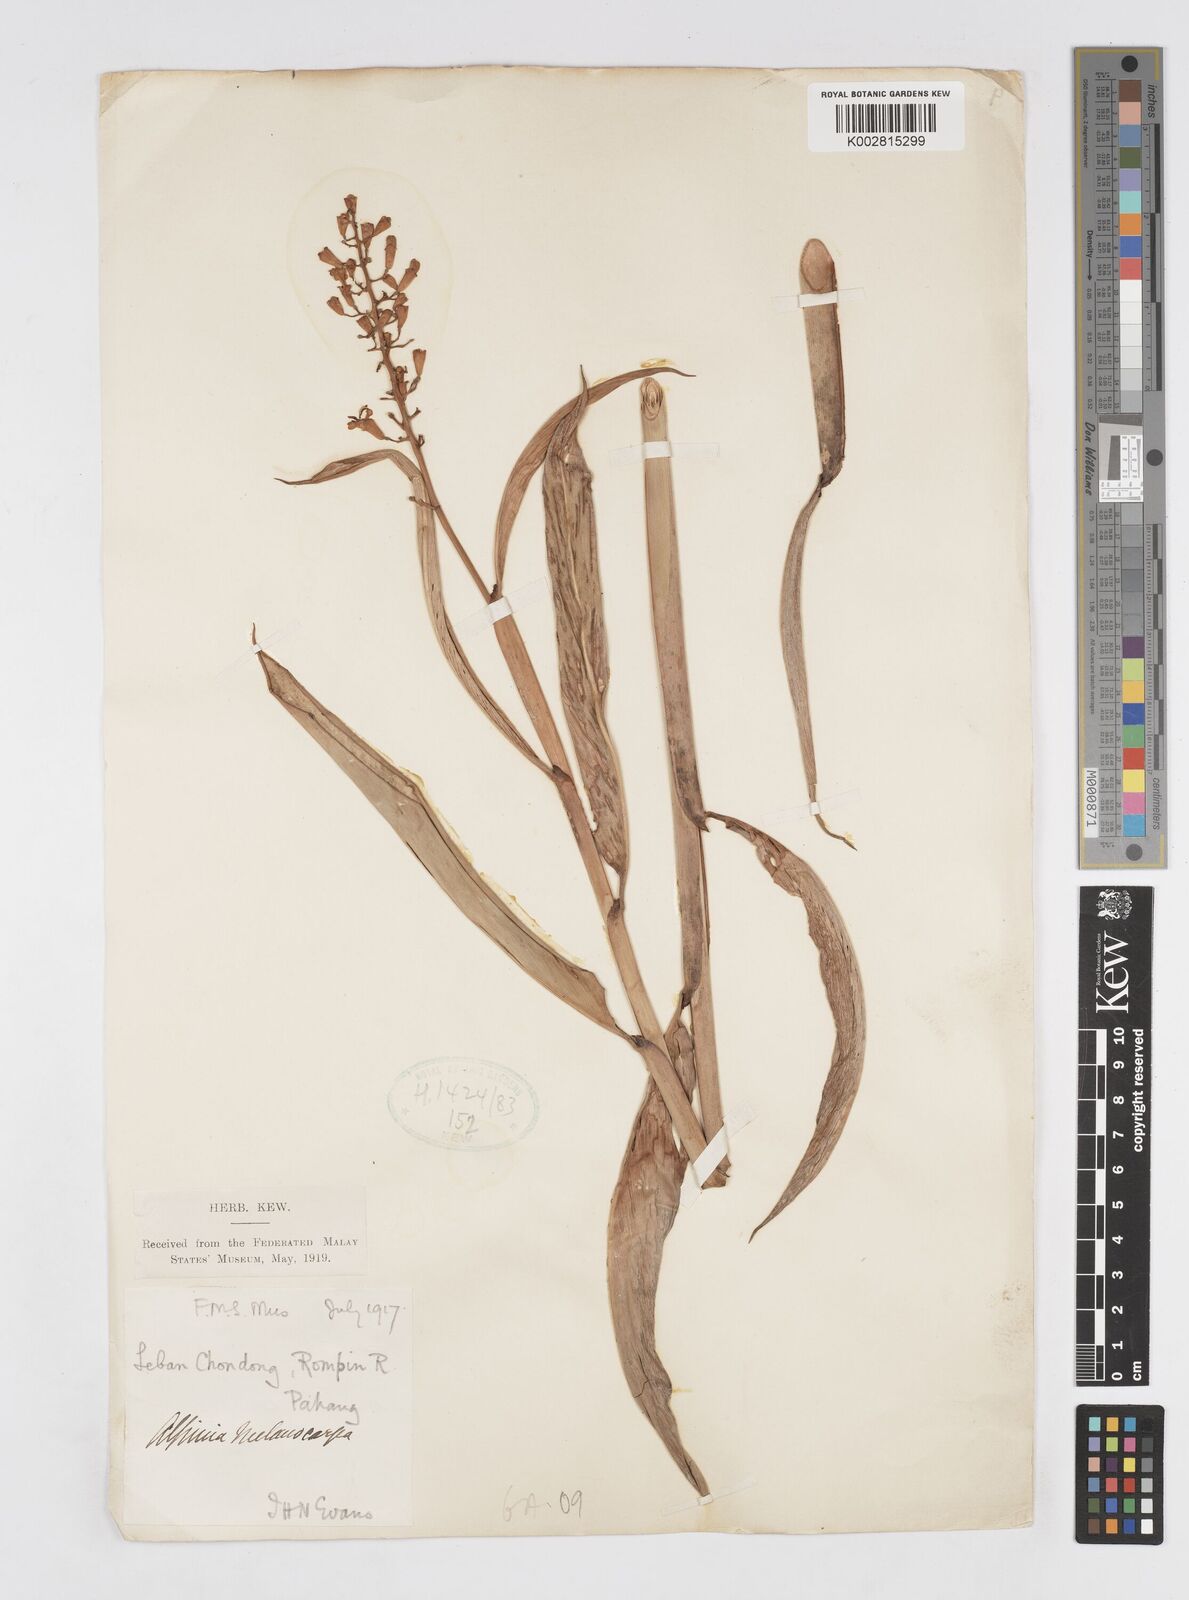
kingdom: Plantae
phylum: Tracheophyta
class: Liliopsida
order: Zingiberales
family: Zingiberaceae
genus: Alpinia
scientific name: Alpinia aquatica
